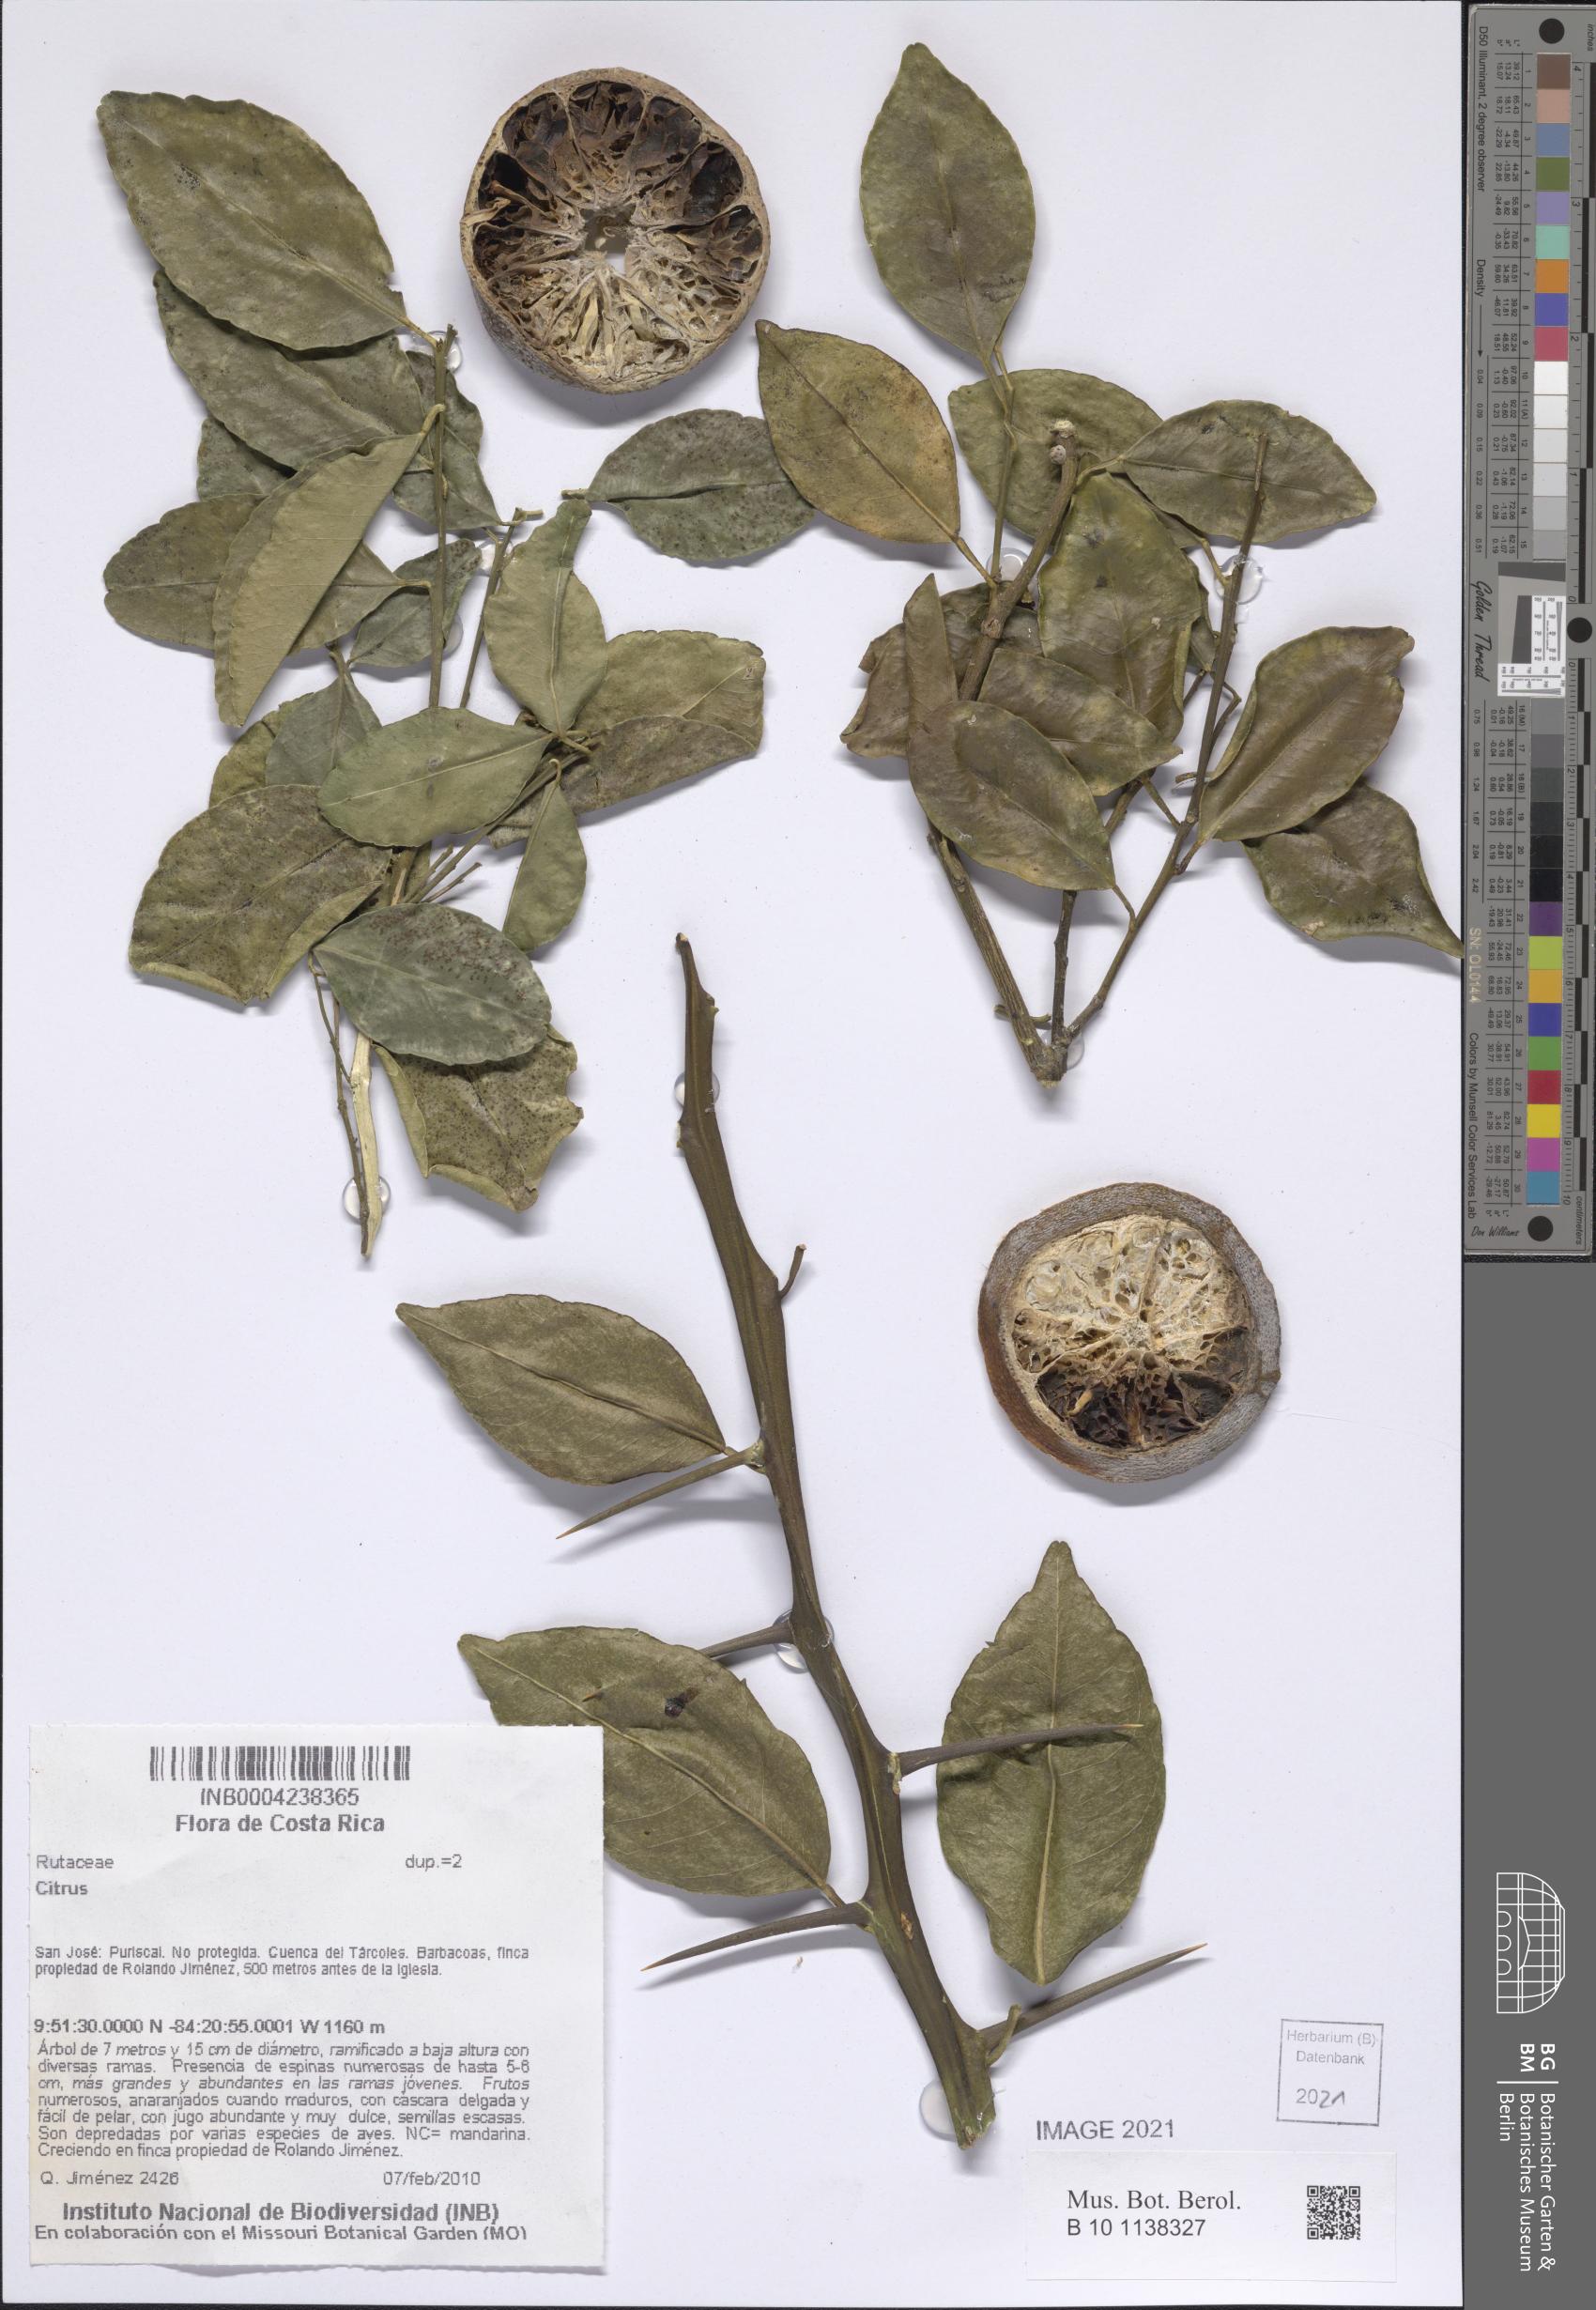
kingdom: Plantae
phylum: Tracheophyta
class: Magnoliopsida
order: Sapindales
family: Rutaceae
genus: Citrus
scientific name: Citrus
